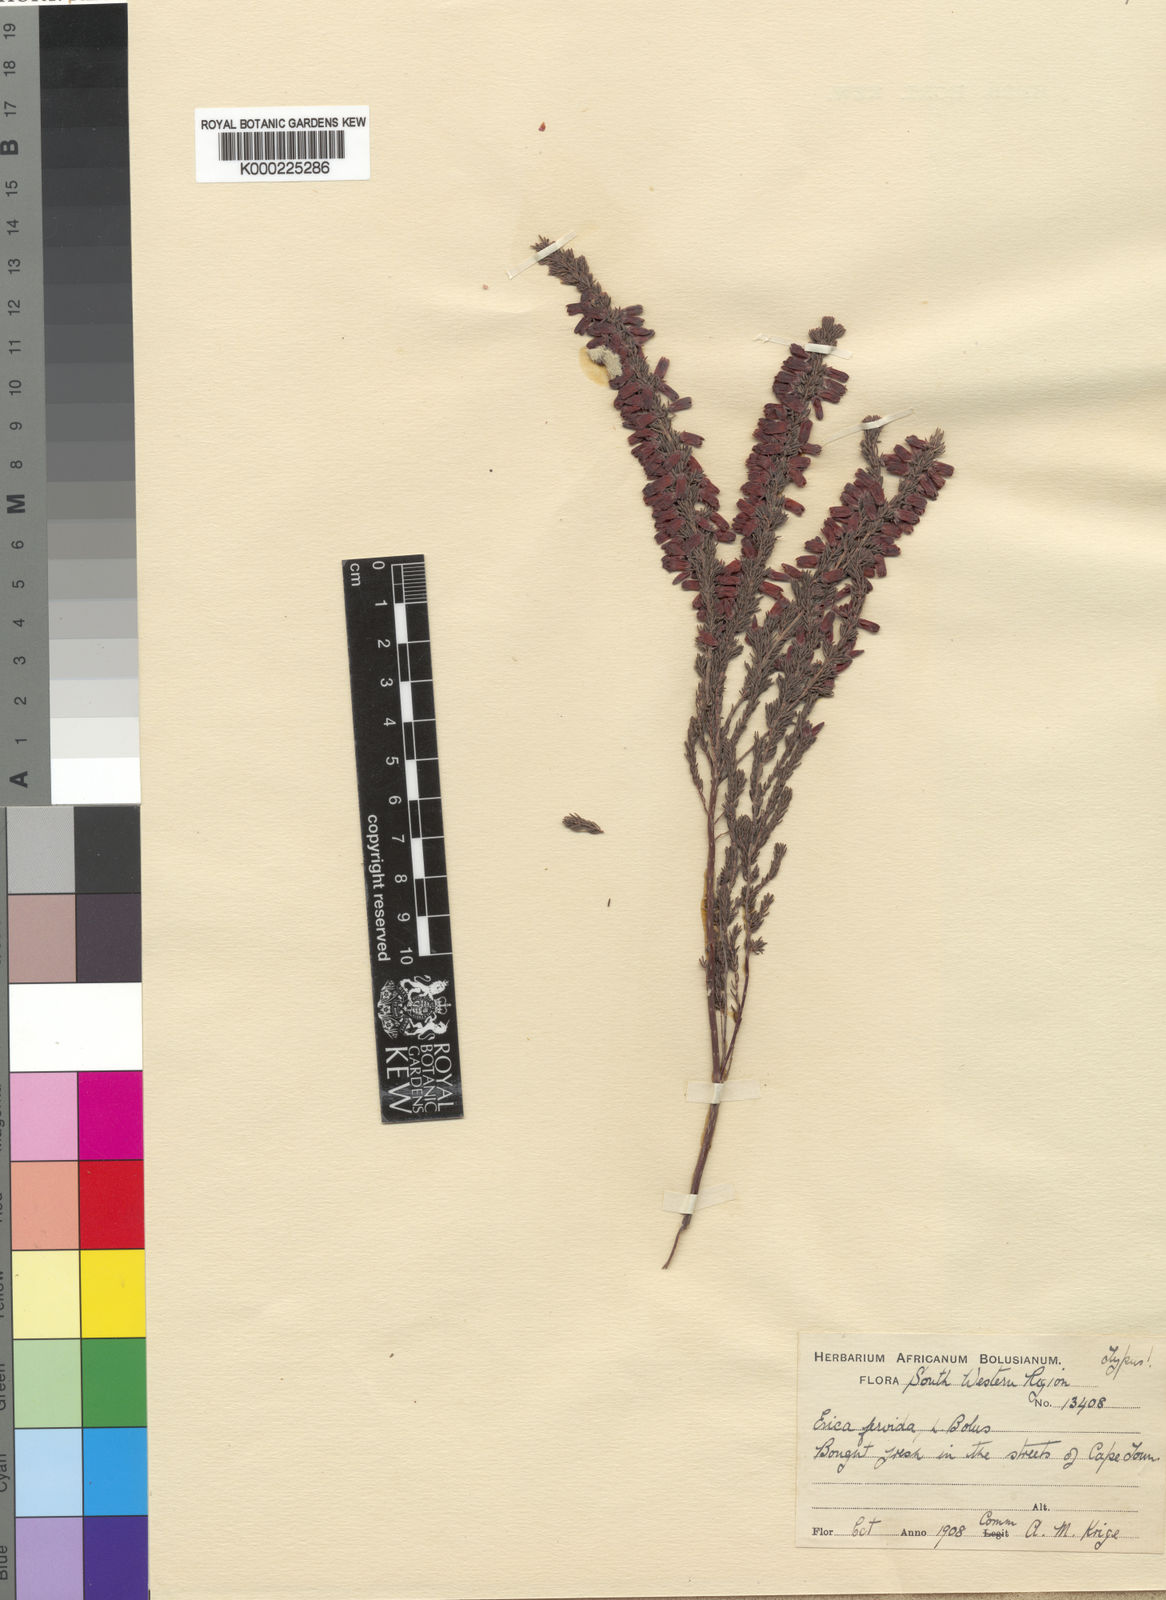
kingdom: Plantae
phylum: Tracheophyta
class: Magnoliopsida
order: Ericales
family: Ericaceae
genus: Erica
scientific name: Erica pillansii
